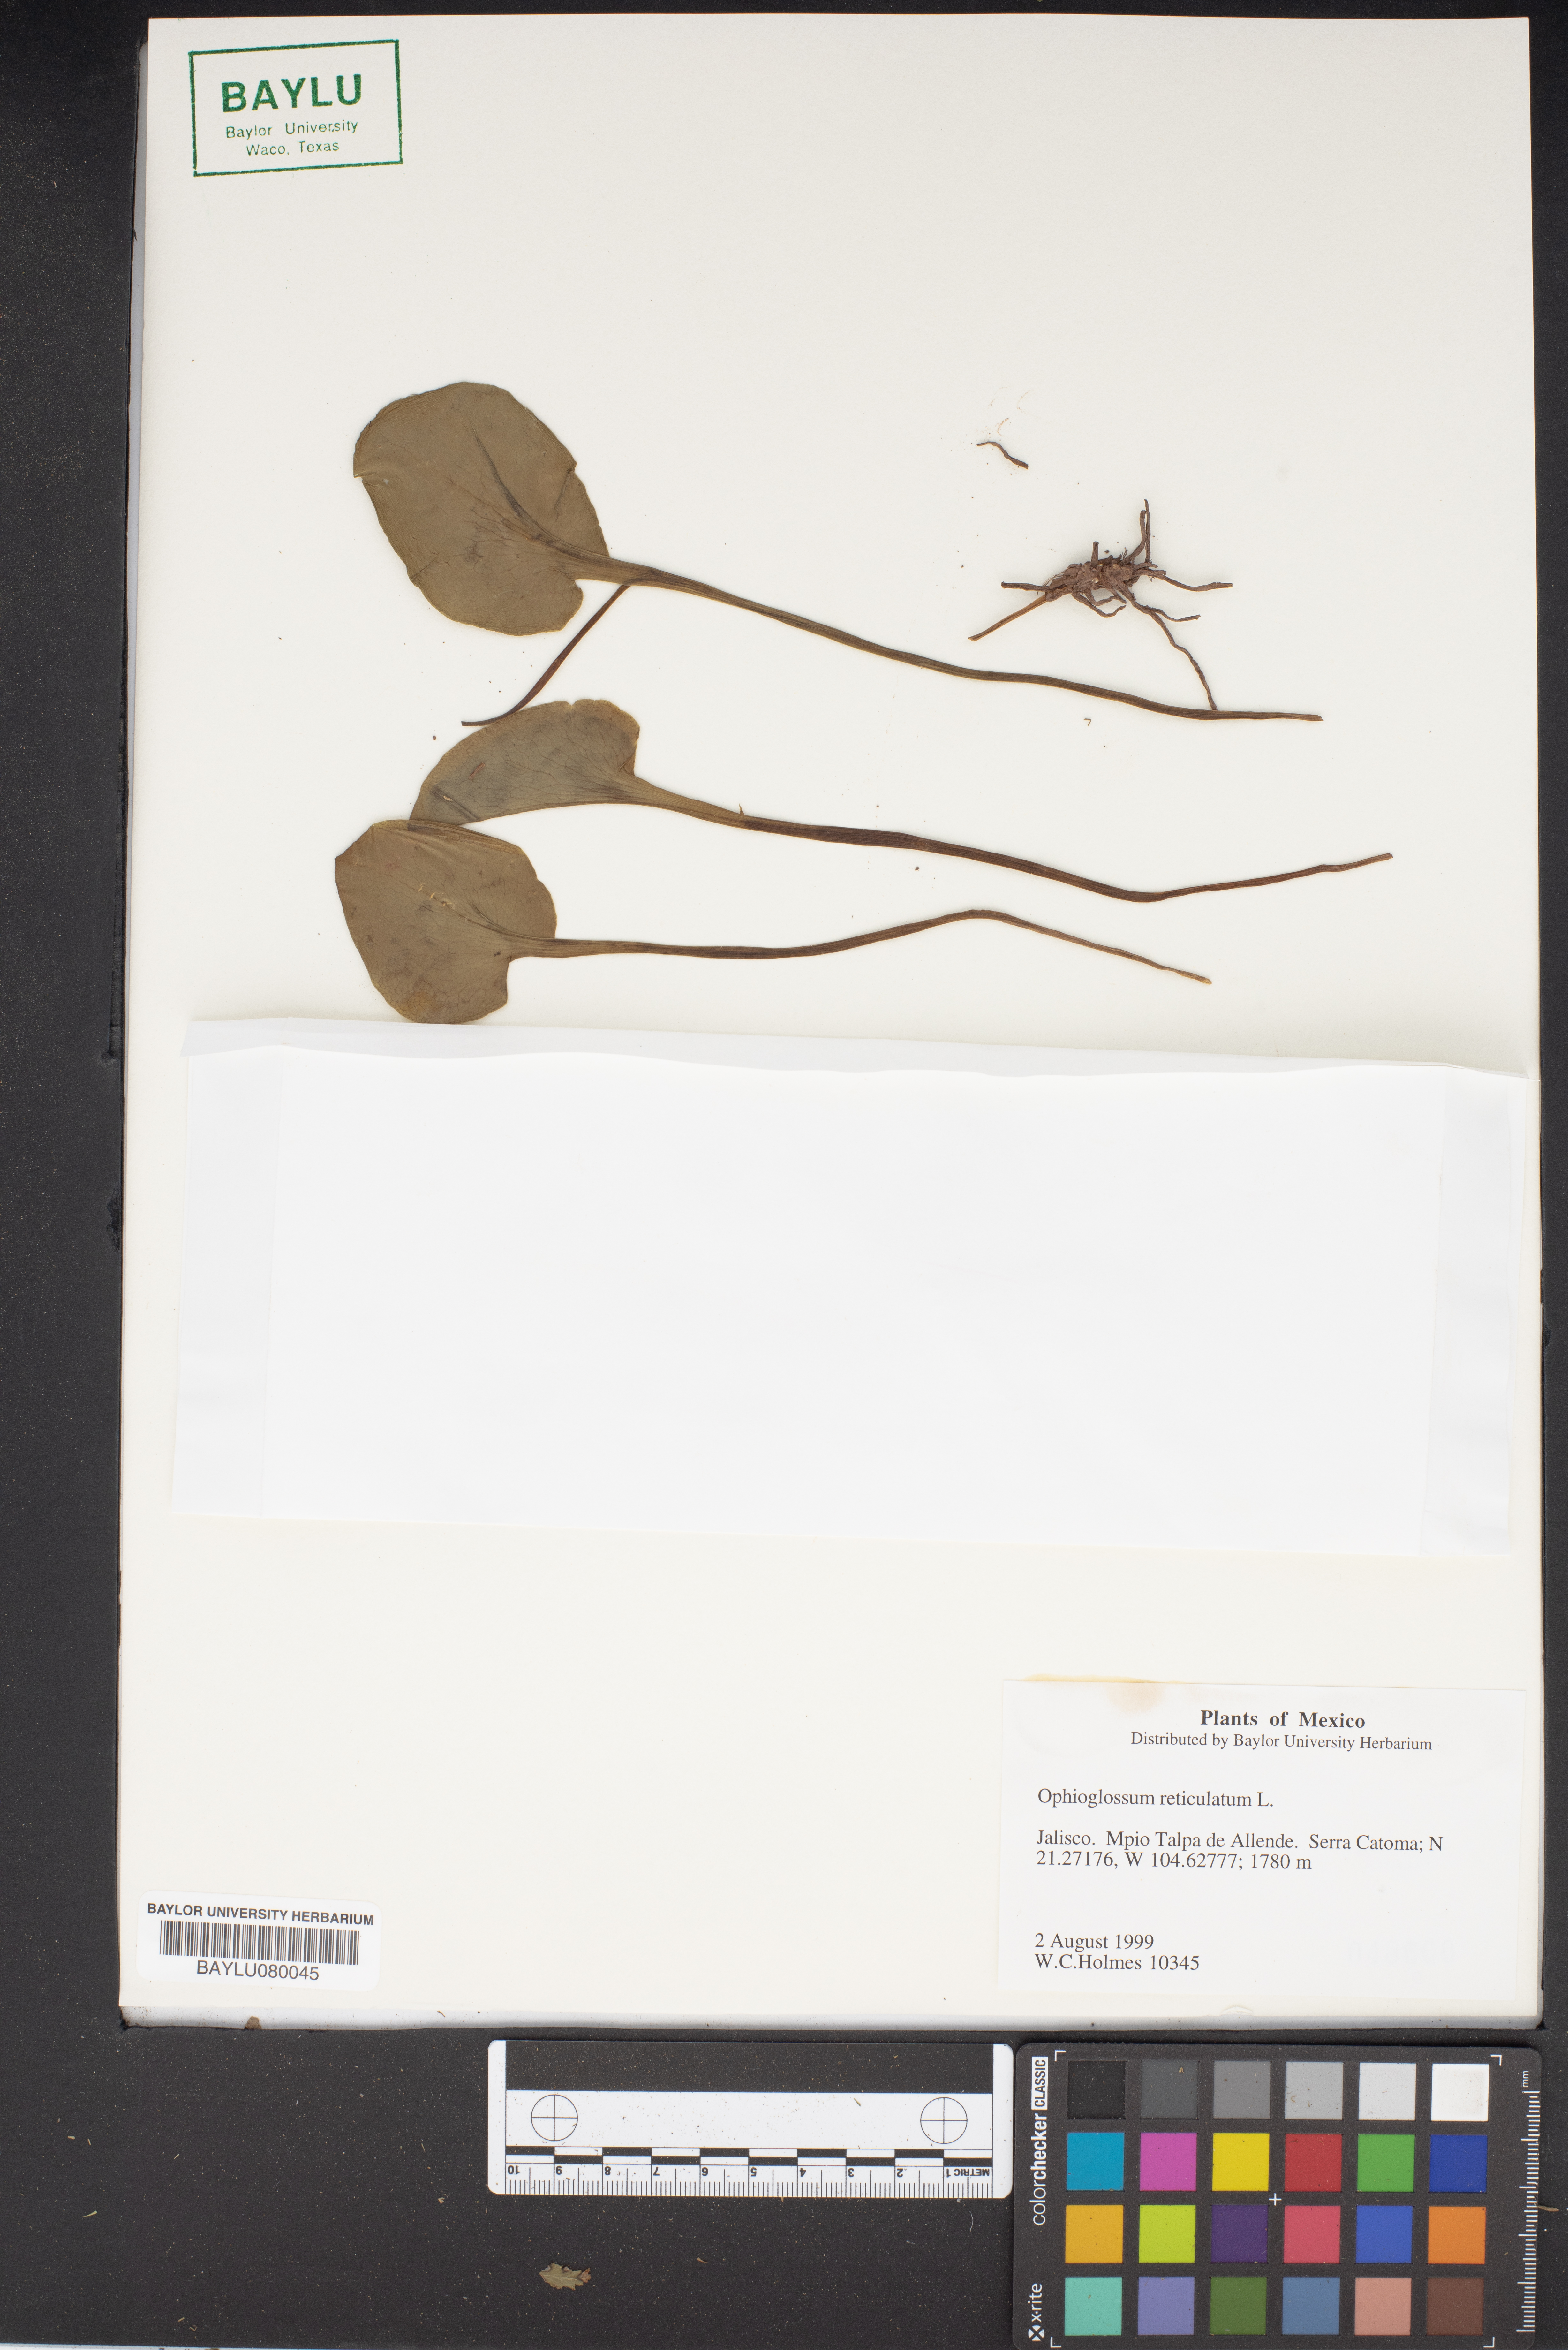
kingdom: Plantae
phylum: Tracheophyta
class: Polypodiopsida
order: Ophioglossales
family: Ophioglossaceae
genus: Ophioglossum
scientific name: Ophioglossum reticulatum
